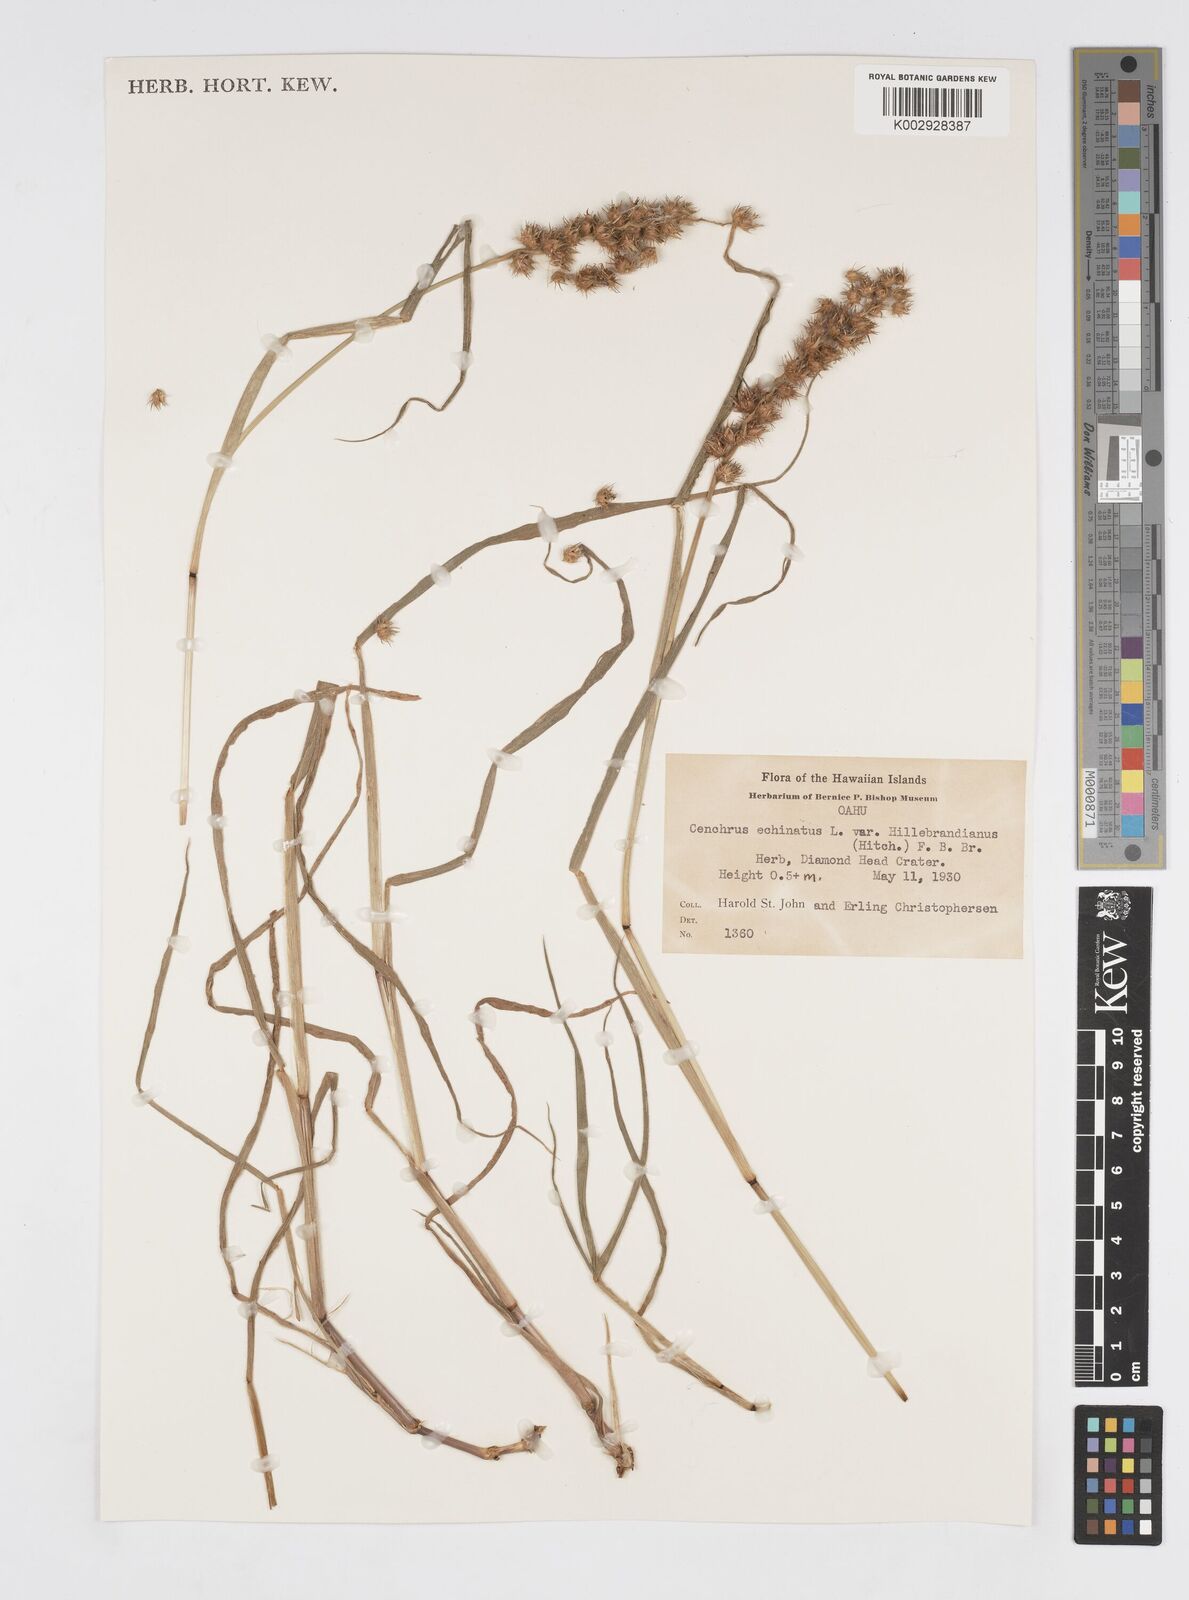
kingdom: Plantae
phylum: Tracheophyta
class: Liliopsida
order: Poales
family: Poaceae
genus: Cenchrus
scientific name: Cenchrus echinatus
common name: Southern sandbur
